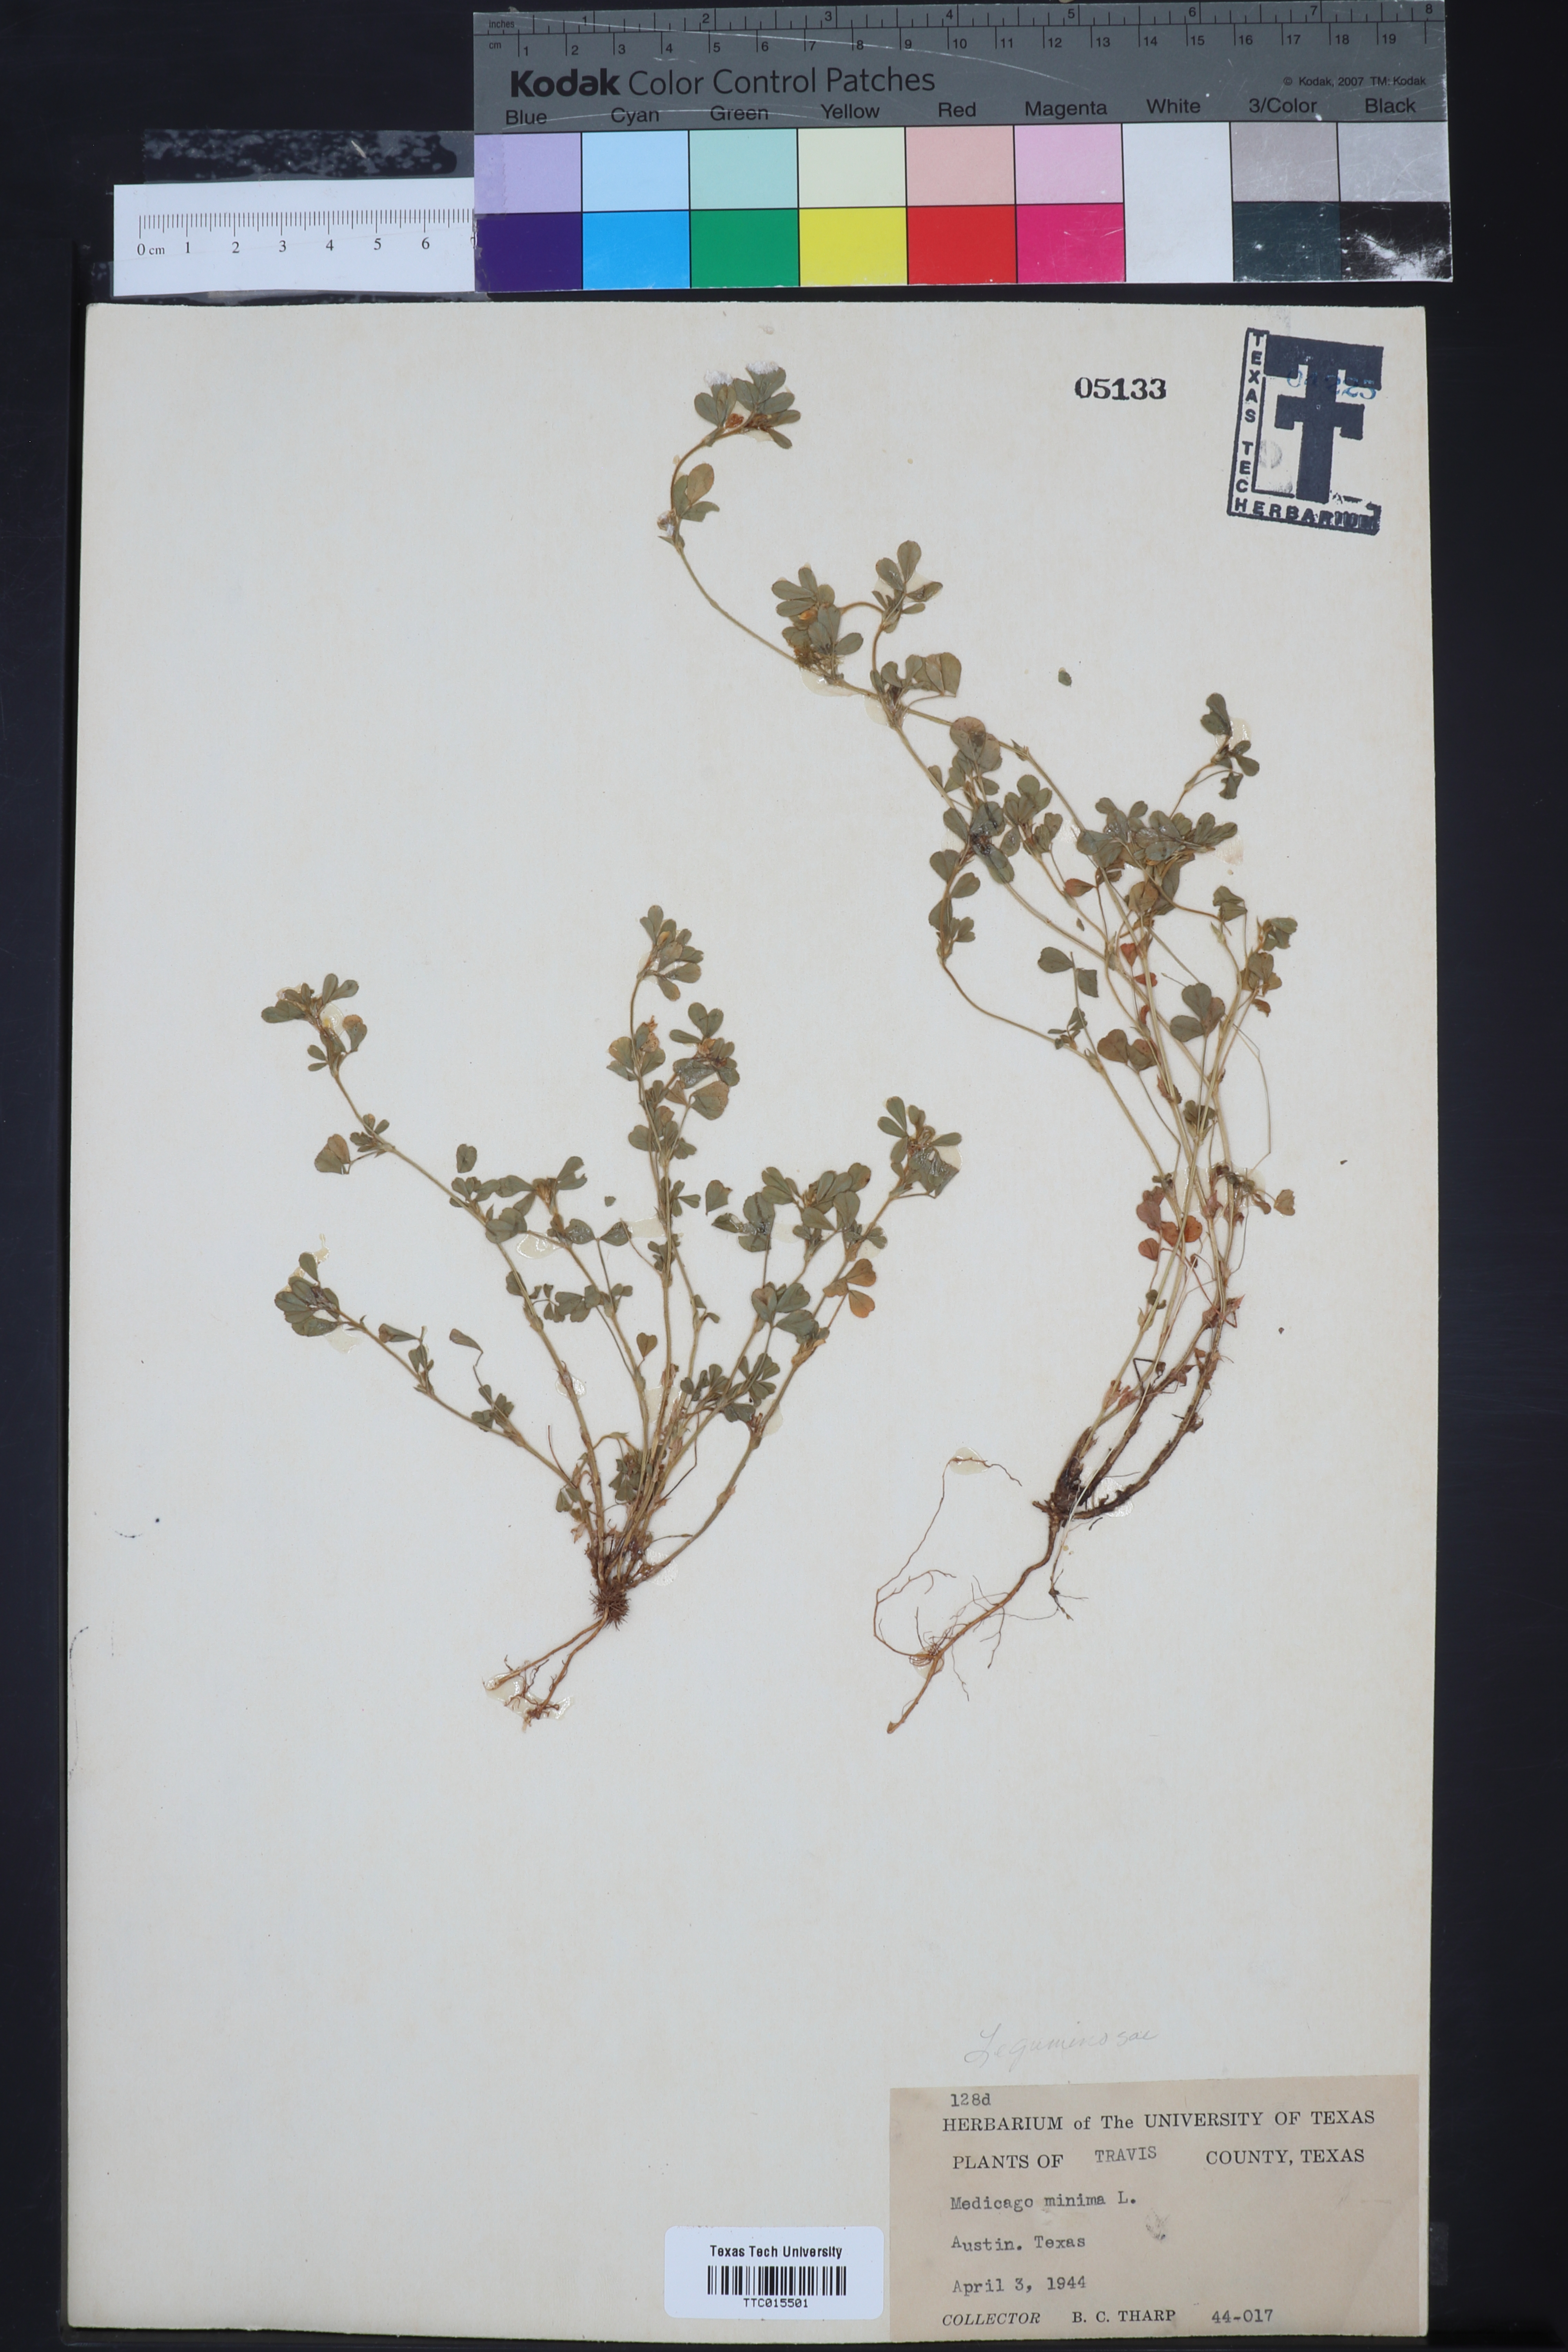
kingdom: Plantae
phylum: Tracheophyta
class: Magnoliopsida
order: Fabales
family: Fabaceae
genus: Medicago
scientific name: Medicago lupulina
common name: Black medick
